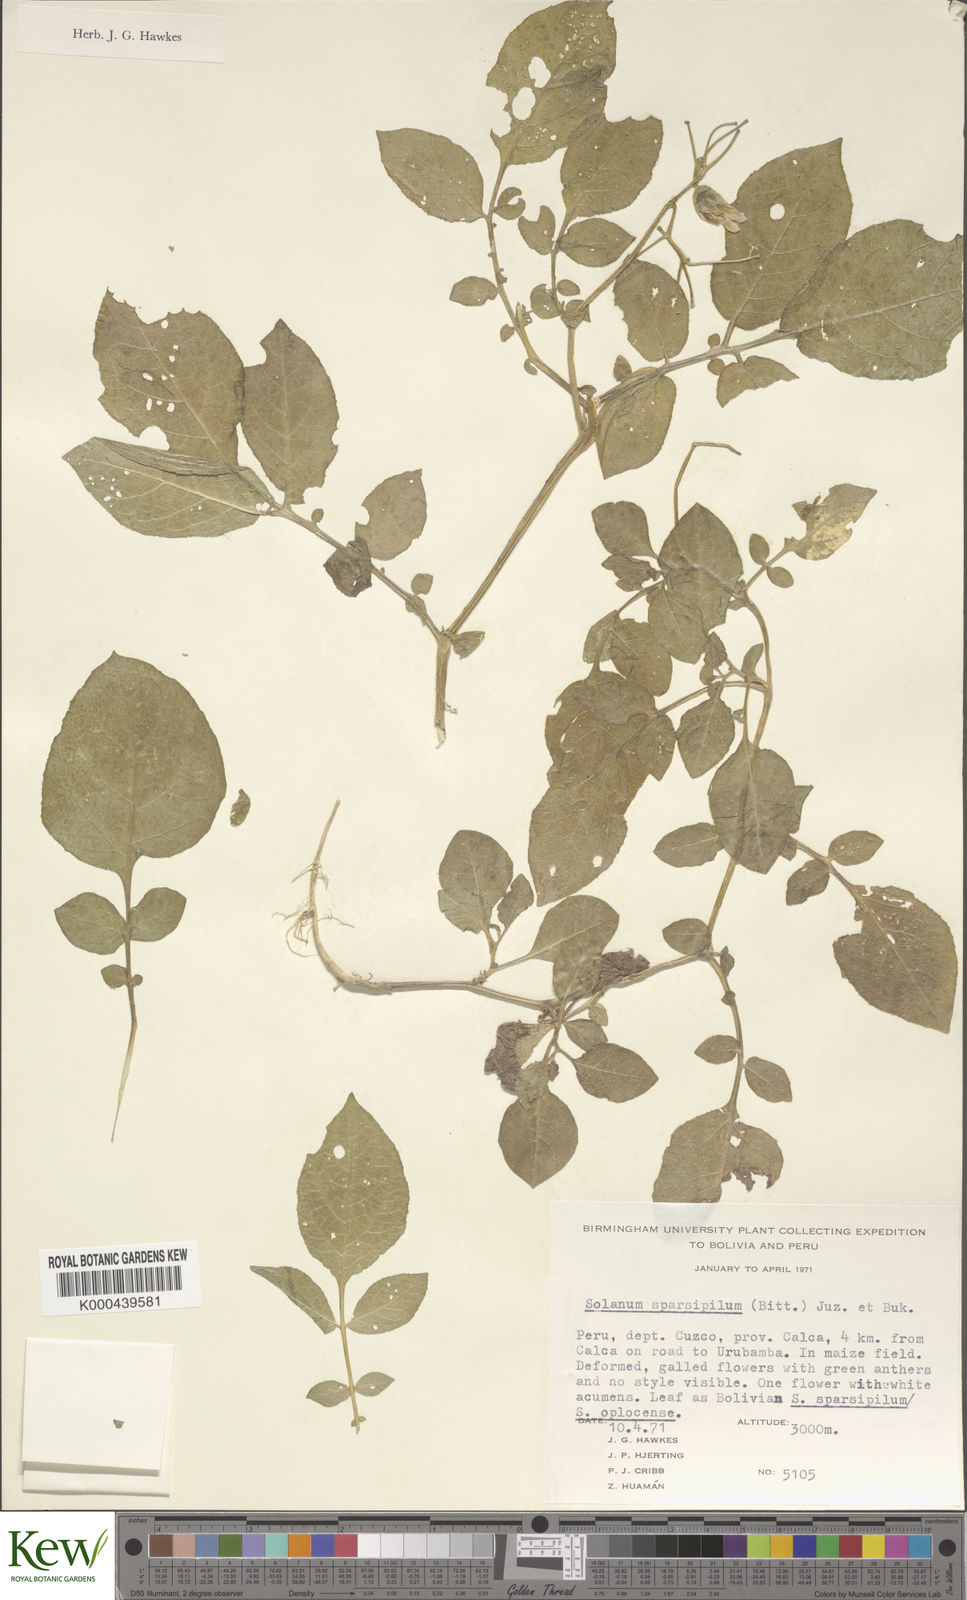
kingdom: Plantae
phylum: Tracheophyta
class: Magnoliopsida
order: Solanales
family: Solanaceae
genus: Solanum
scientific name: Solanum brevicaule
